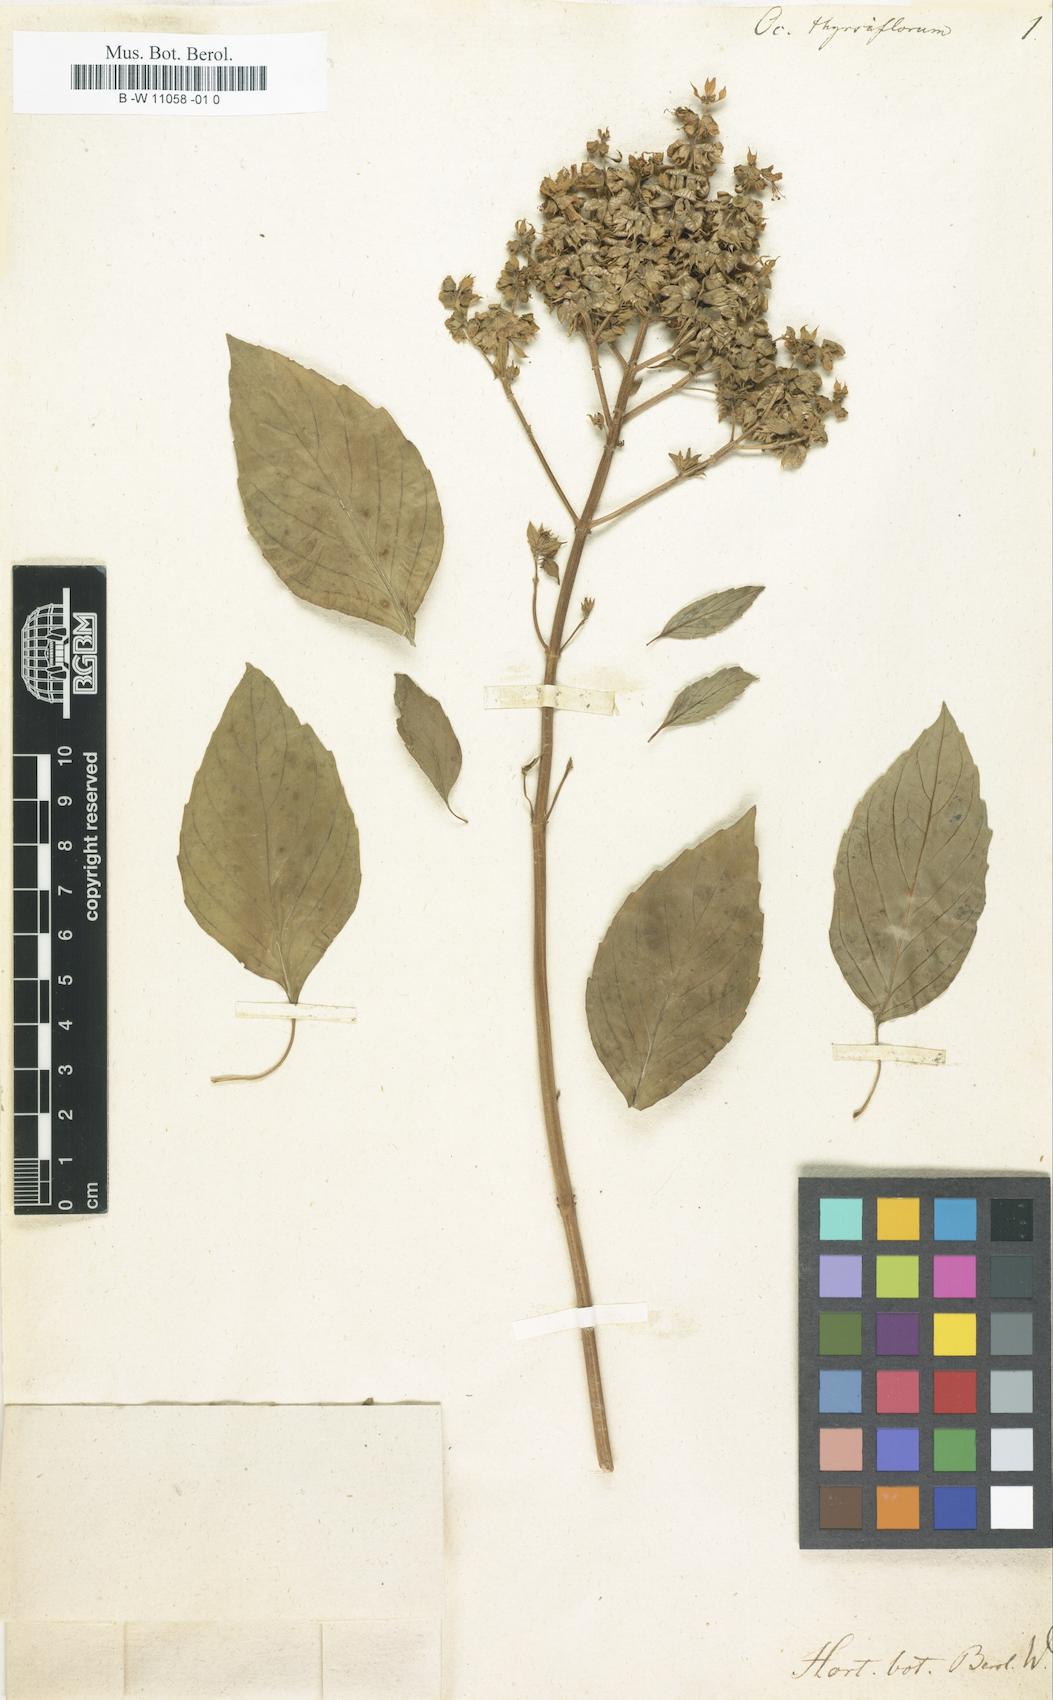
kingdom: Plantae
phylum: Tracheophyta
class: Magnoliopsida
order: Lamiales
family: Lamiaceae
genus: Ocimum
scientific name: Ocimum basilicum
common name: Sweet basil
